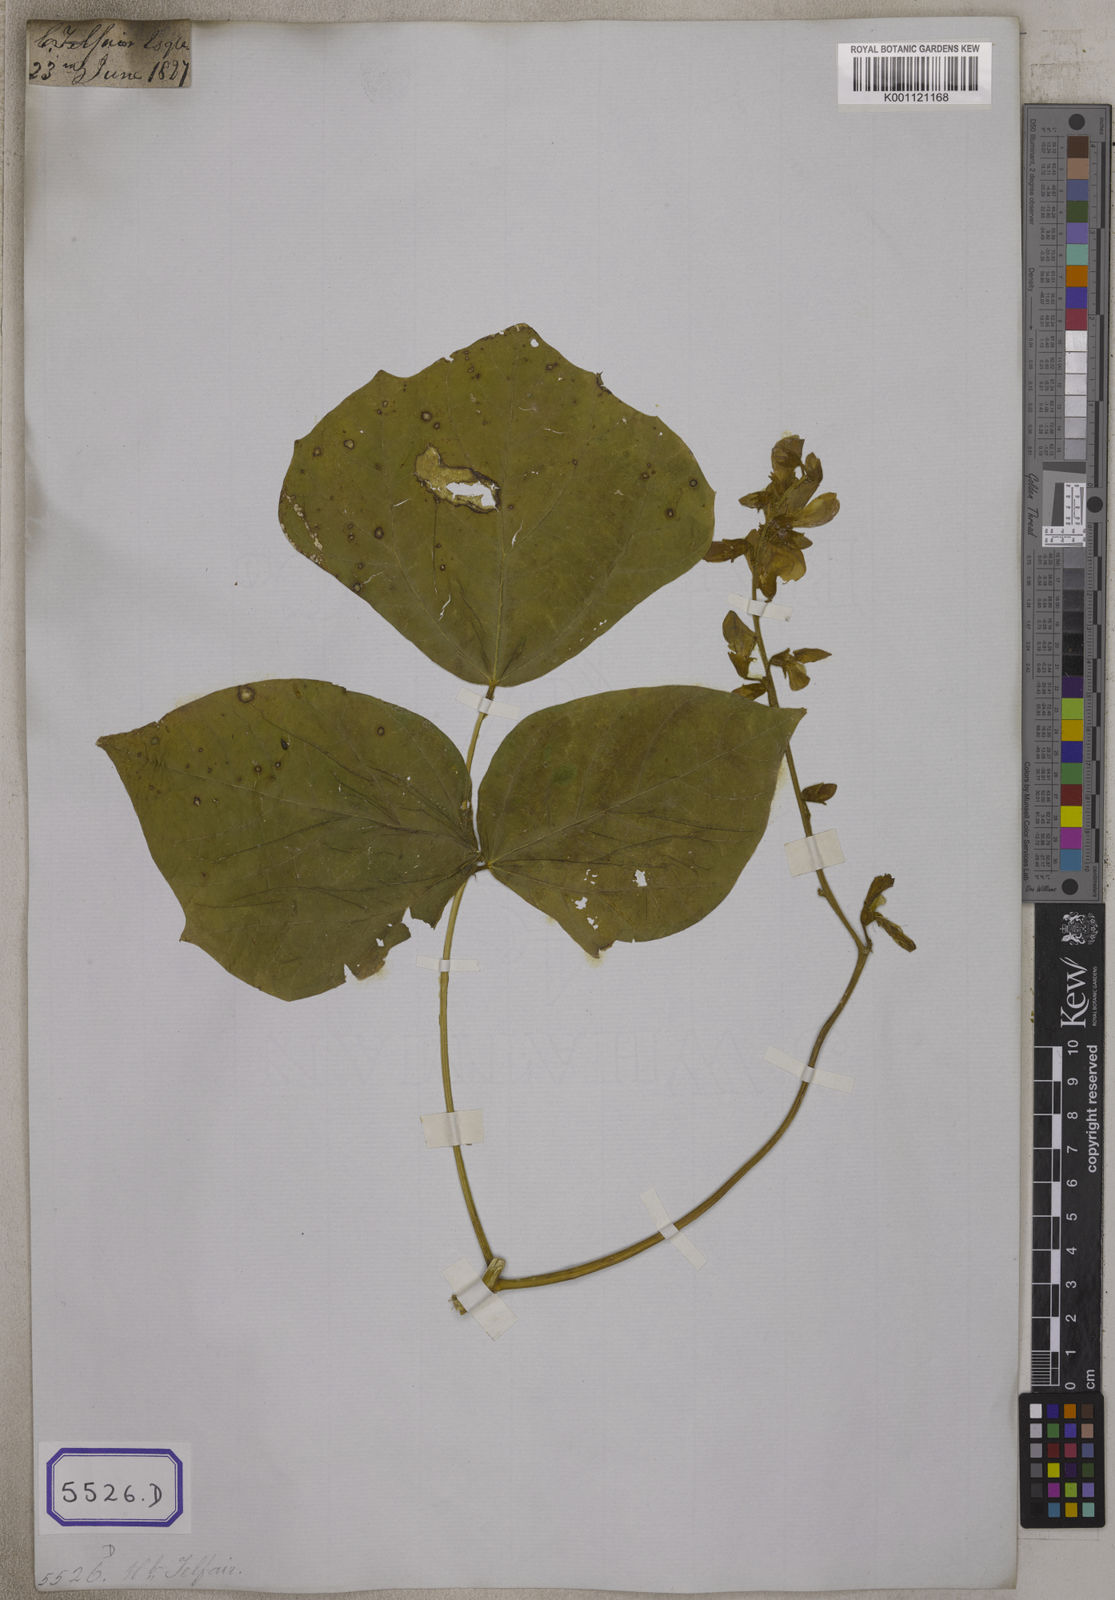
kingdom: Plantae
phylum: Tracheophyta
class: Magnoliopsida
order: Fabales
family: Fabaceae
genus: Pachyrhizus
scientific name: Pachyrhizus
